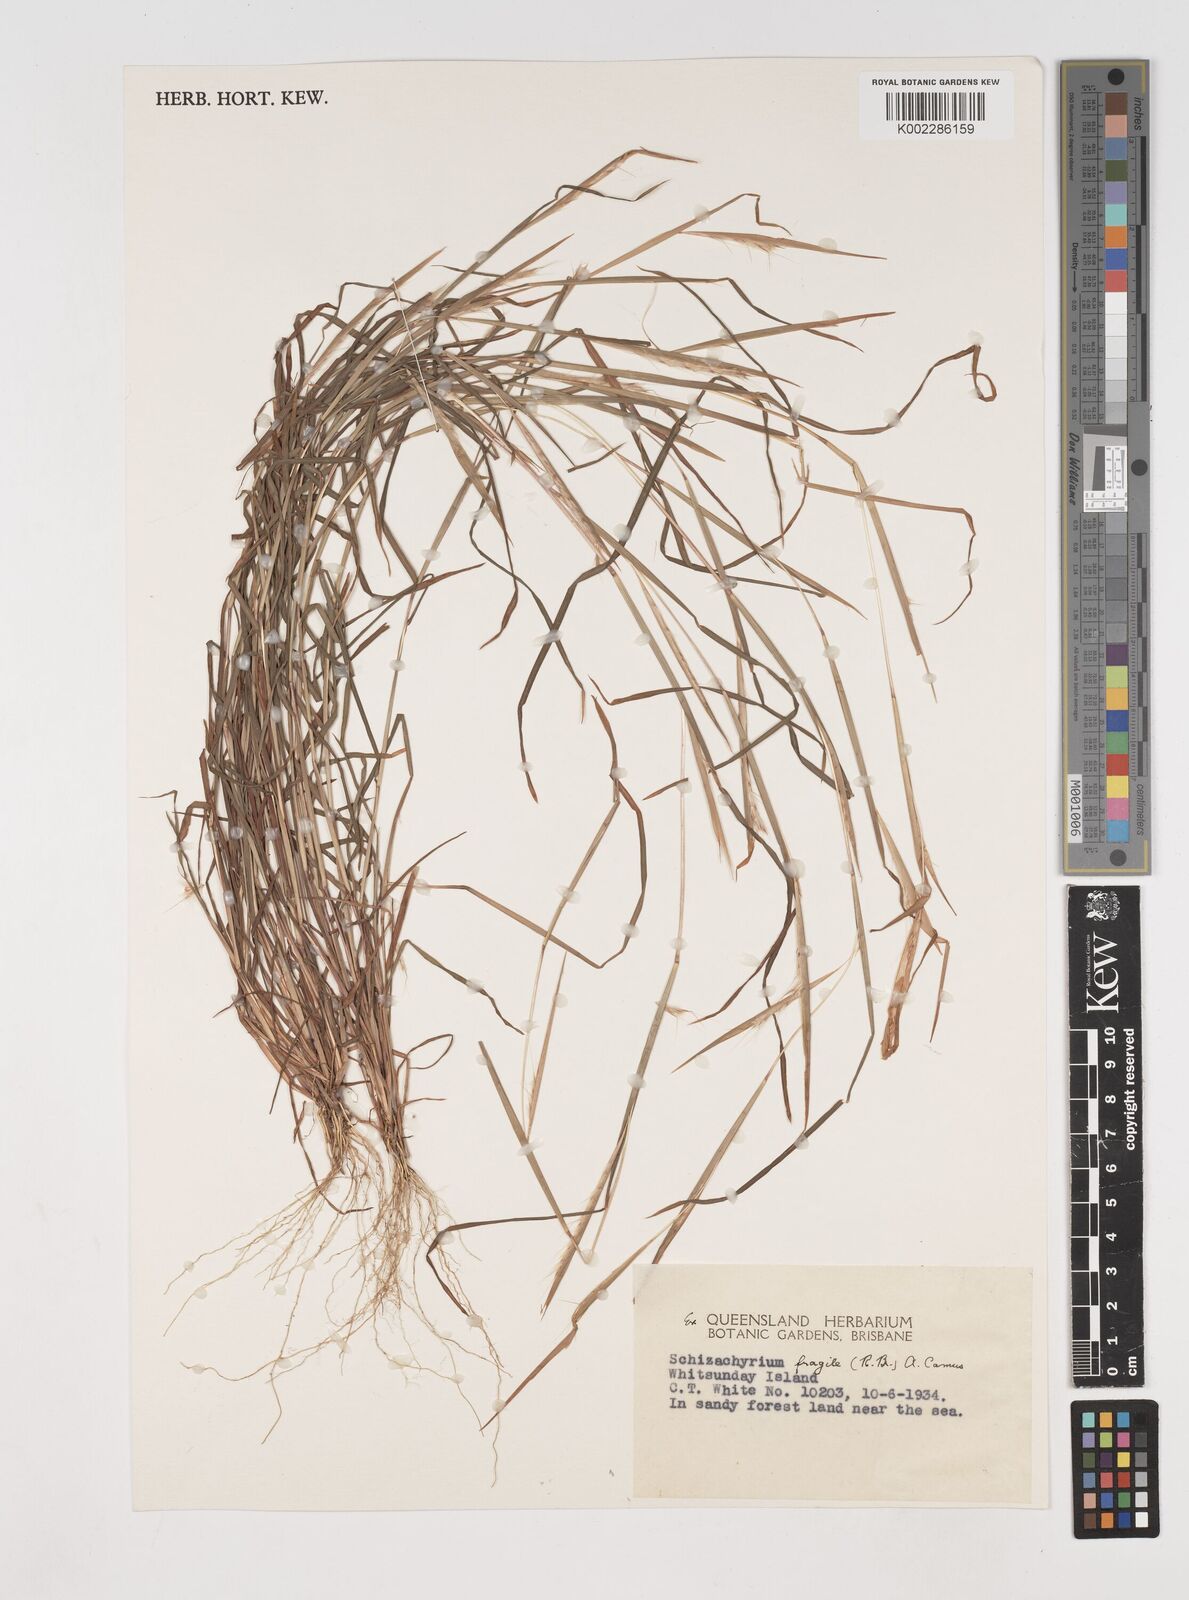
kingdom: Plantae
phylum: Tracheophyta
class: Liliopsida
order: Poales
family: Poaceae
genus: Schizachyrium
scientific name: Schizachyrium fragile
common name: Red spathe grass
